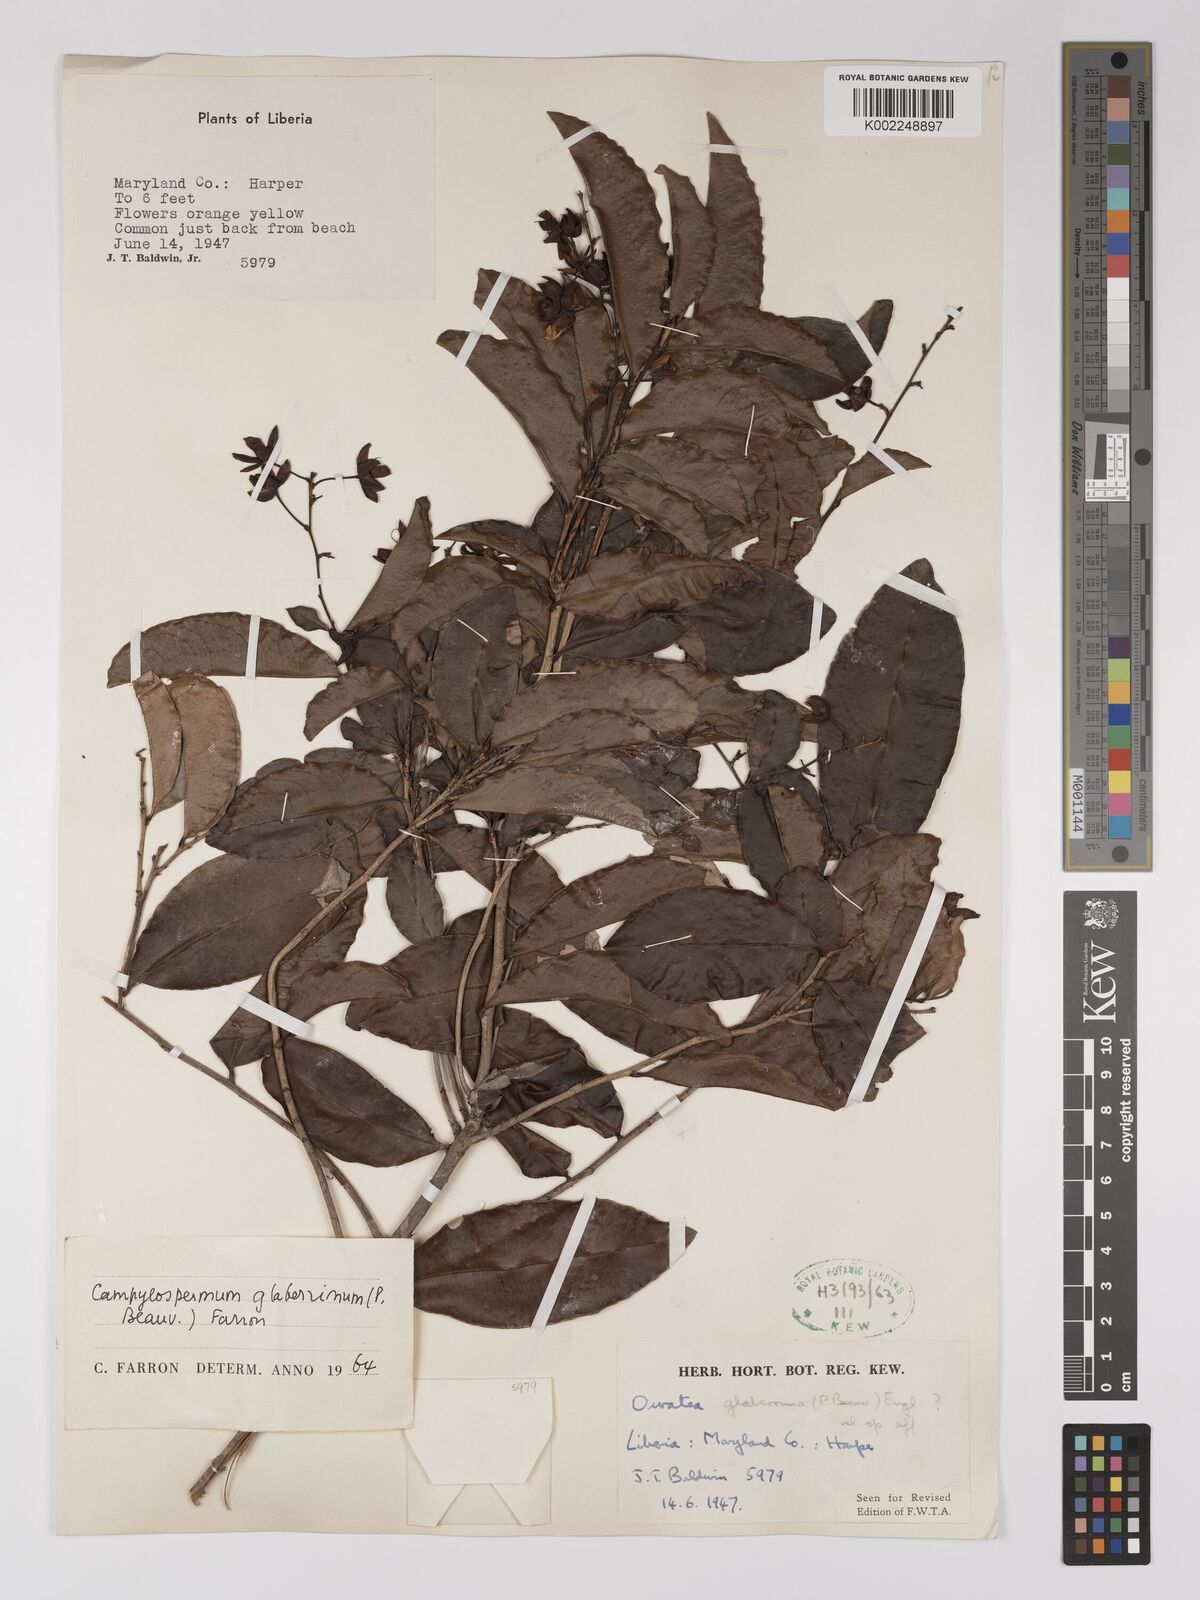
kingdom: Plantae
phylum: Tracheophyta
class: Magnoliopsida
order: Malpighiales
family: Ochnaceae
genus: Campylospermum
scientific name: Campylospermum glaberrimum
